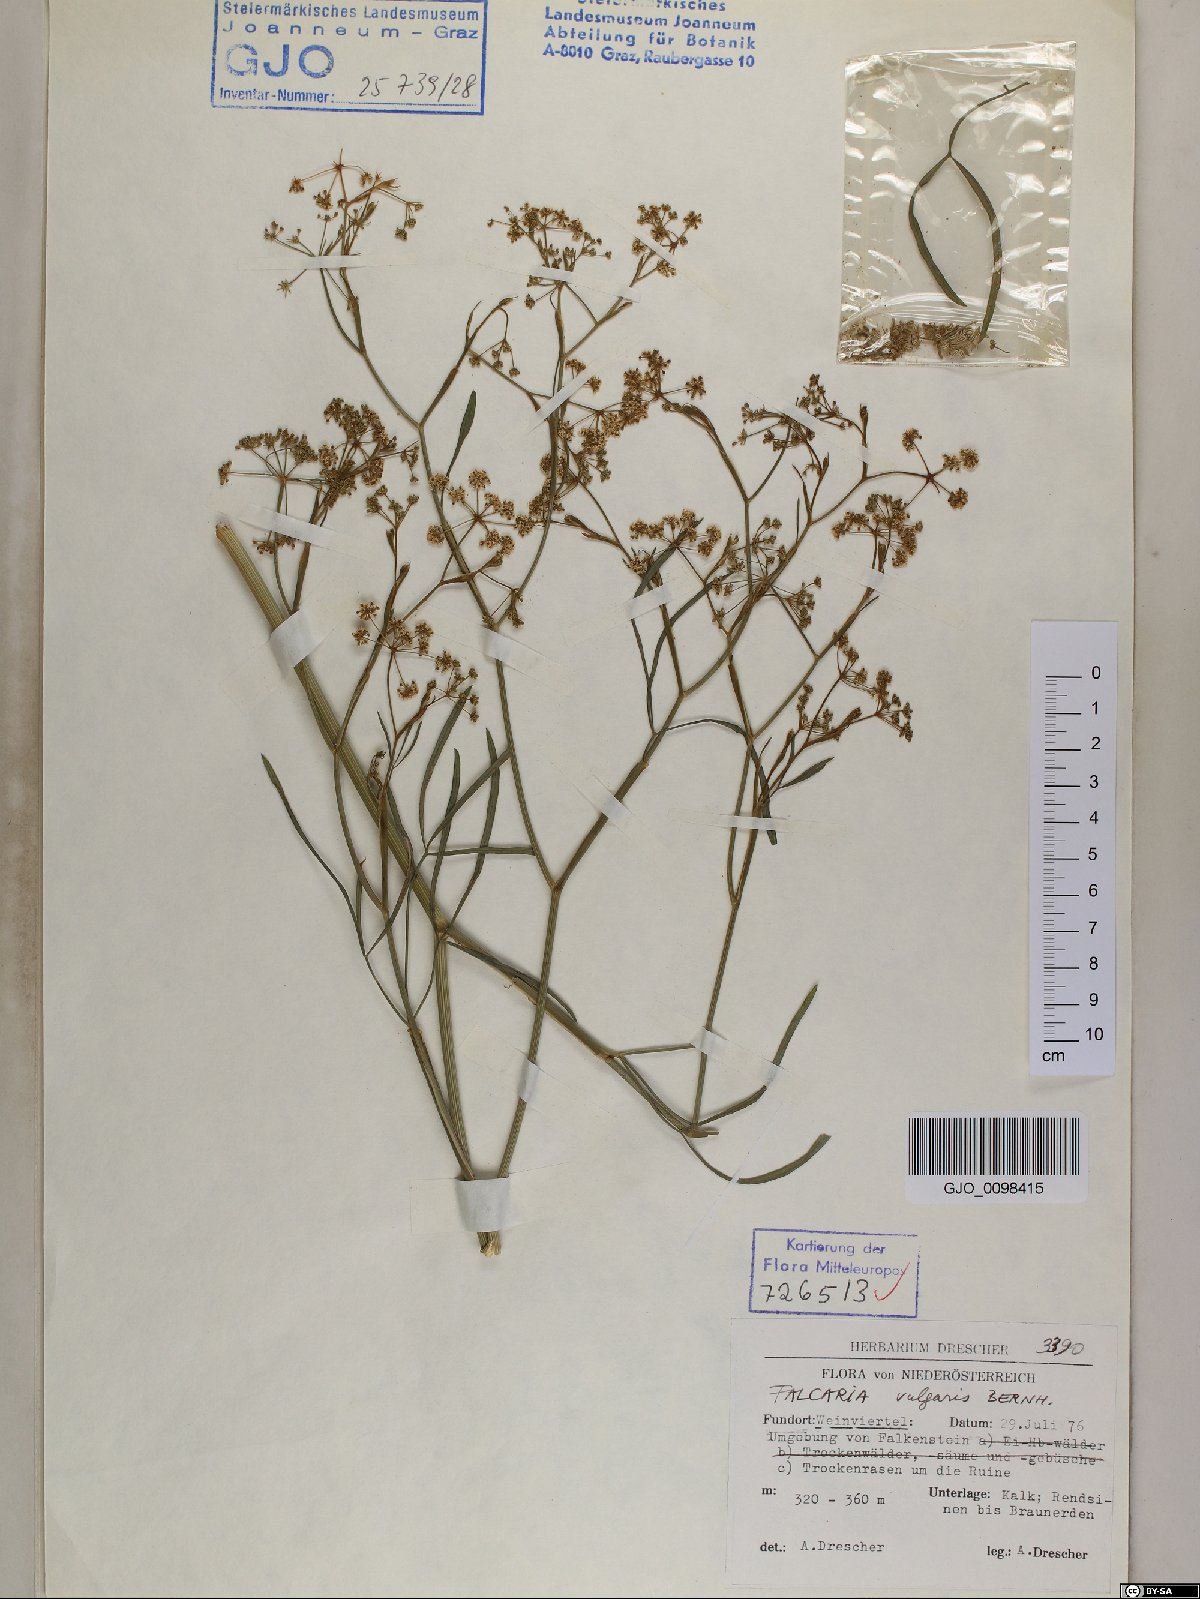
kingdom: Plantae
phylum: Tracheophyta
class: Magnoliopsida
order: Apiales
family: Apiaceae
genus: Falcaria
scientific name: Falcaria vulgaris
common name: Longleaf
